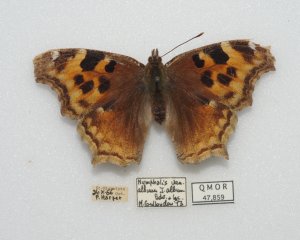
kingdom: Animalia
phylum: Arthropoda
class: Insecta
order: Lepidoptera
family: Nymphalidae
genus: Polygonia
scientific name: Polygonia vaualbum
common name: Compton Tortoiseshell
